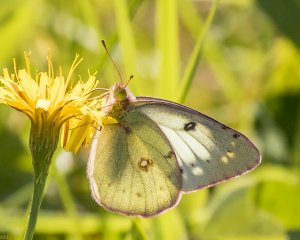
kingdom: Animalia
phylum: Arthropoda
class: Insecta
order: Lepidoptera
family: Pieridae
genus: Colias
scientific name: Colias philodice
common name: Clouded Sulphur
